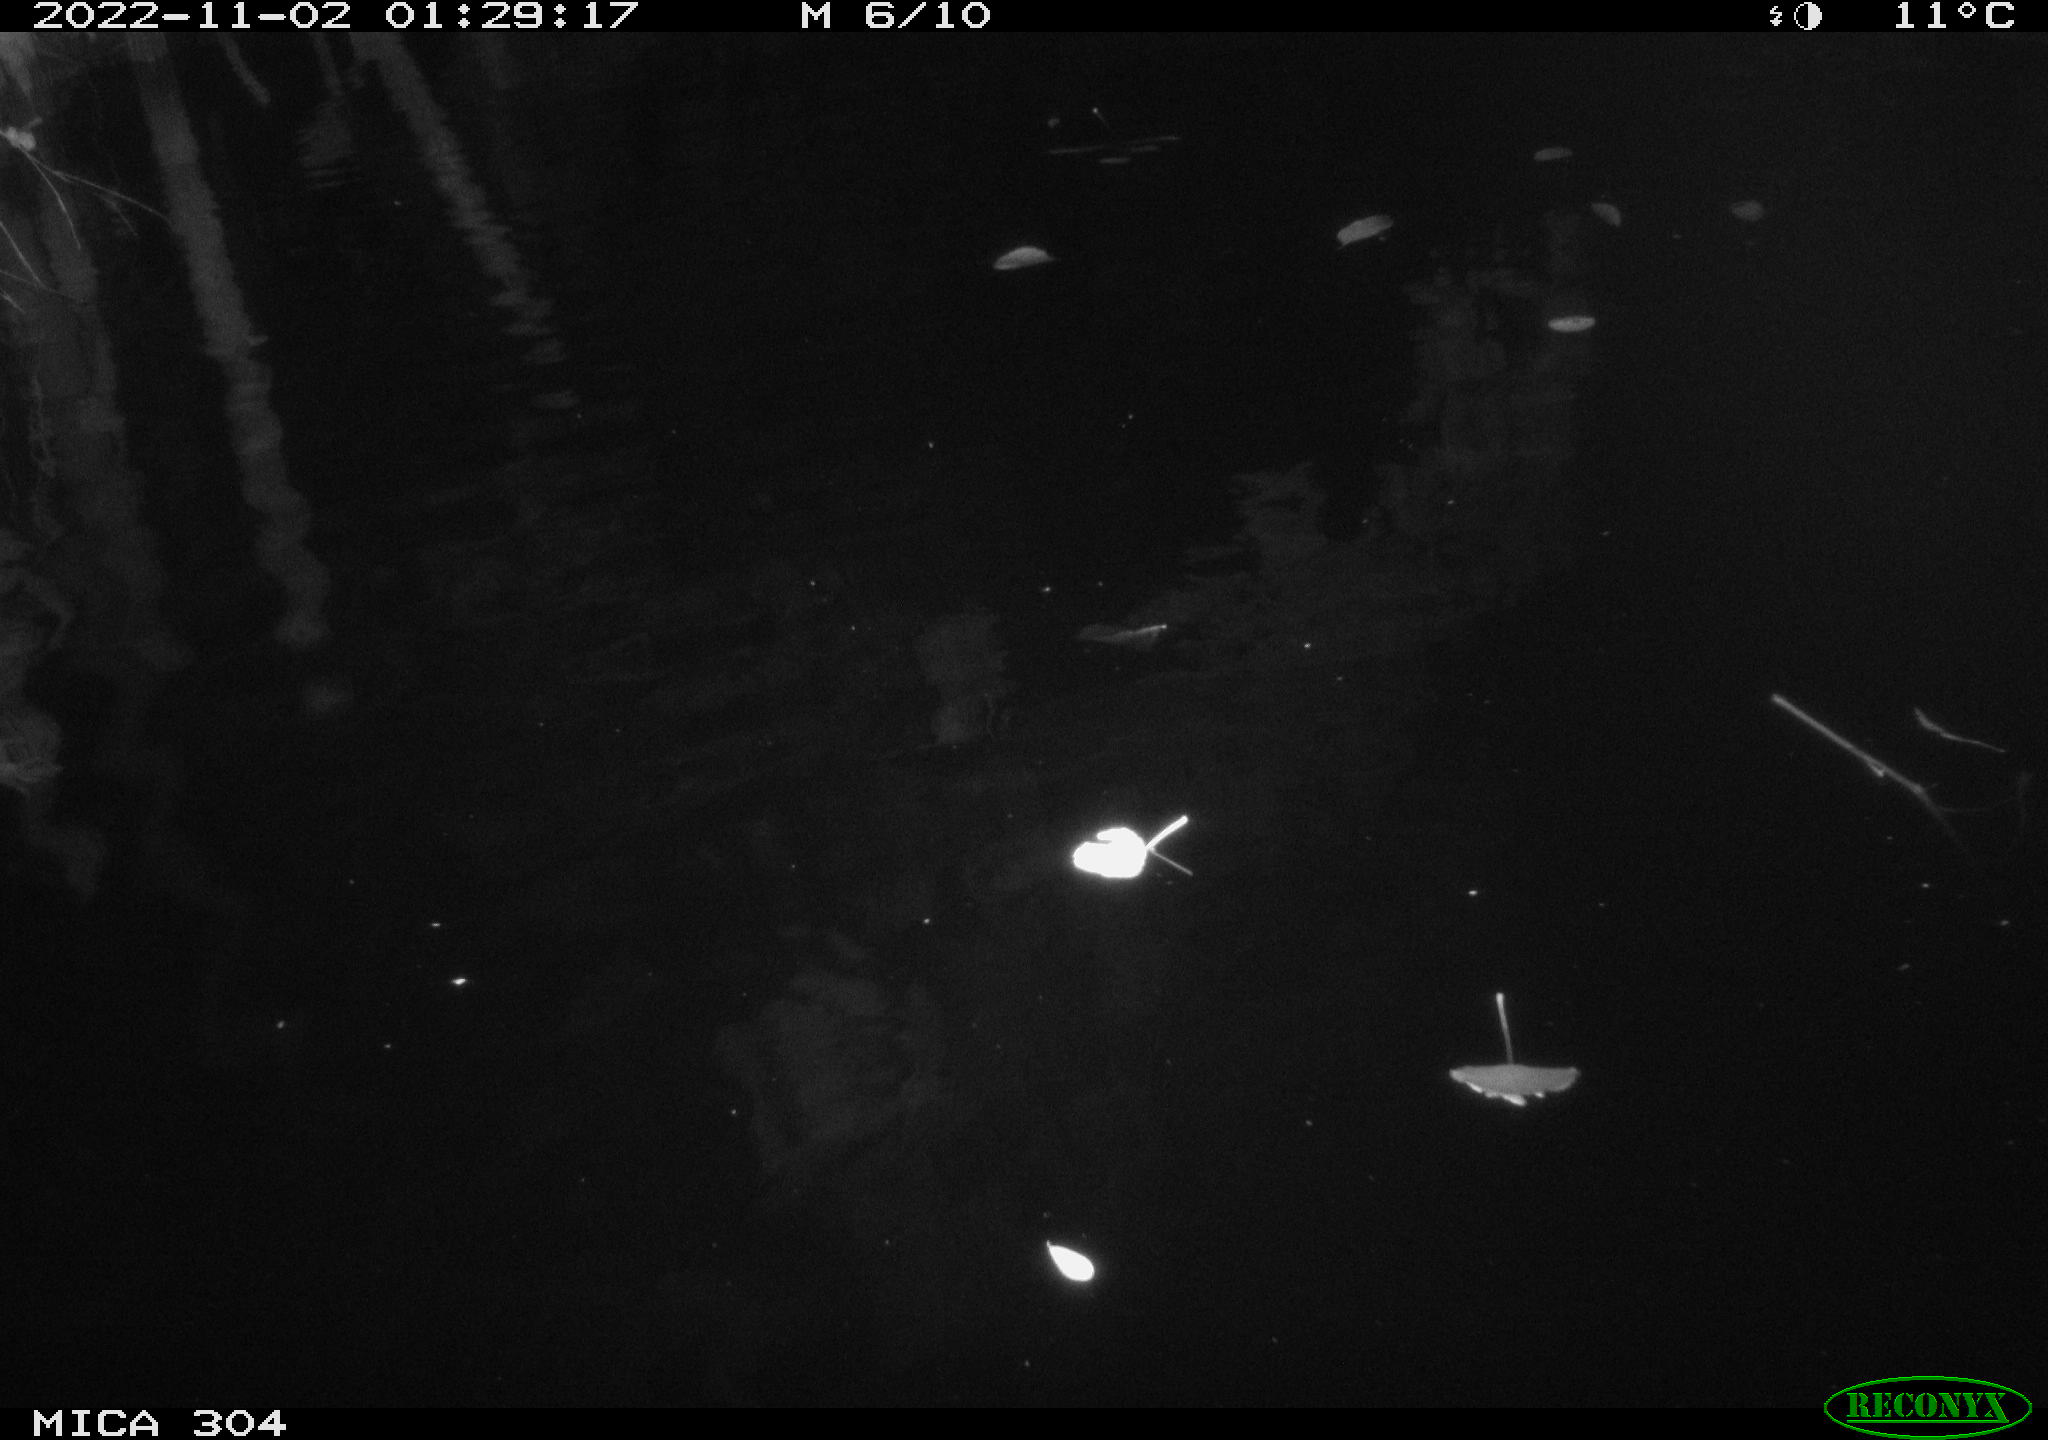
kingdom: Animalia
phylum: Chordata
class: Mammalia
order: Rodentia
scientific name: Rodentia
